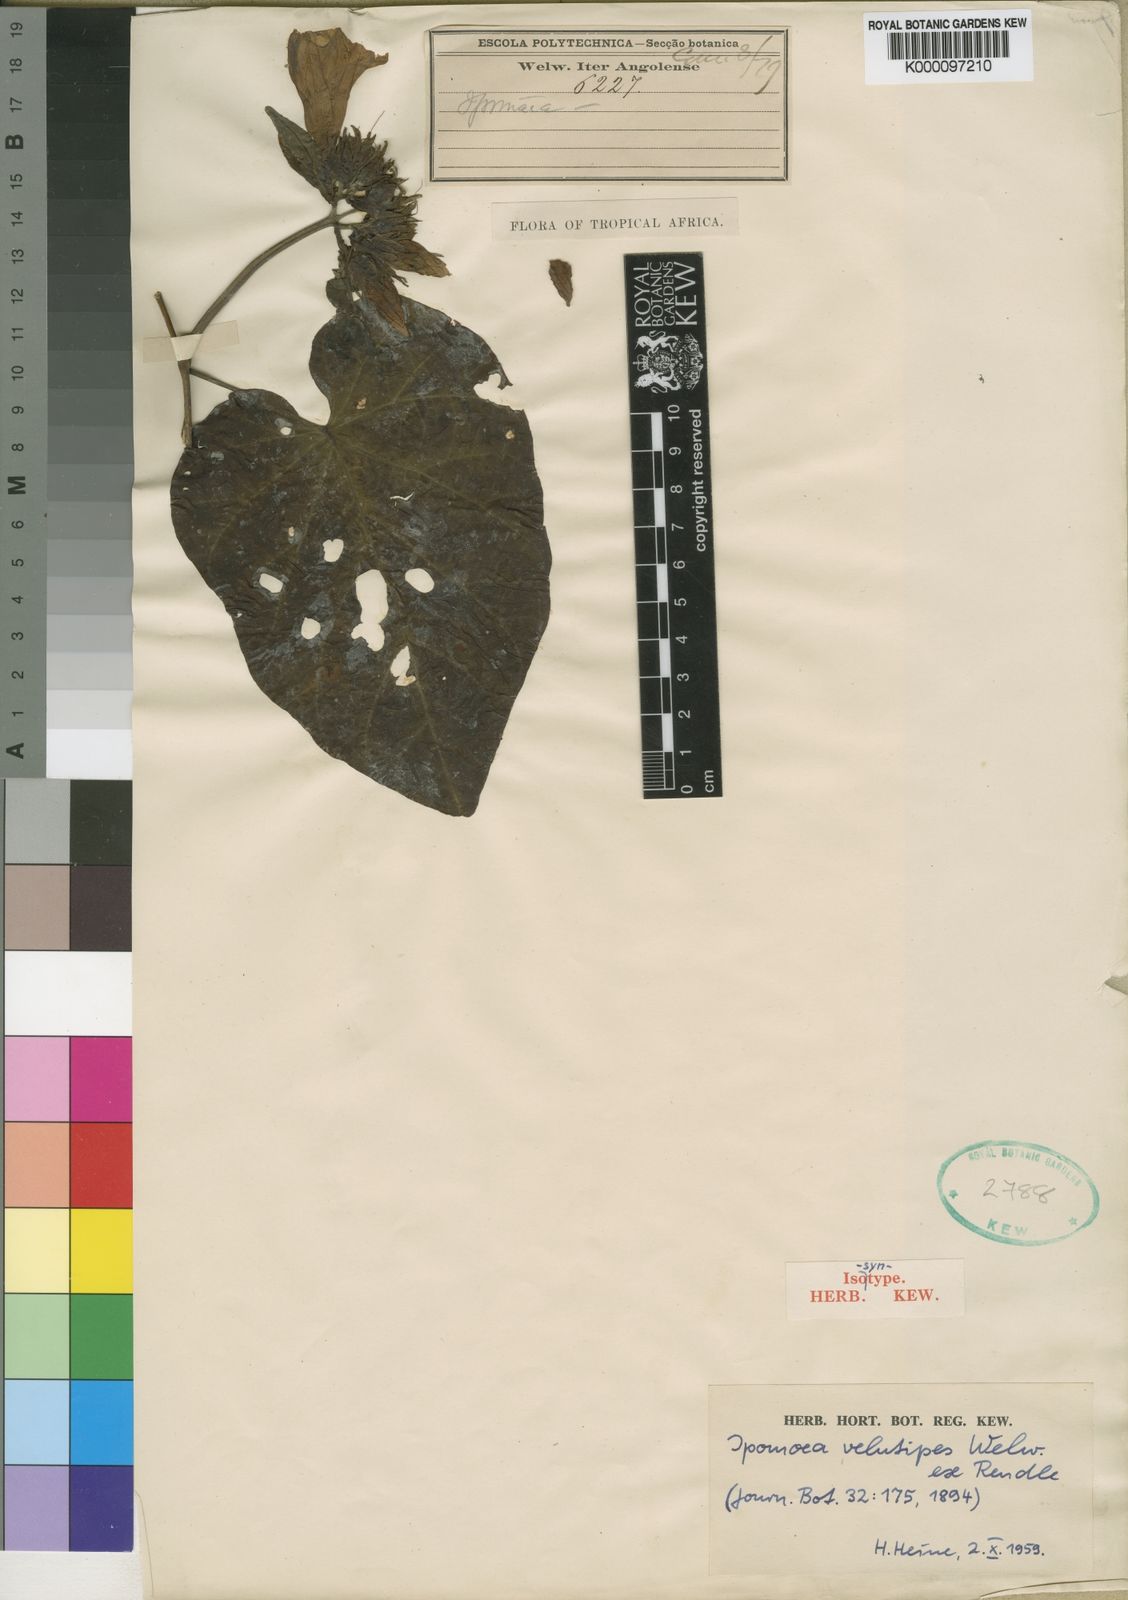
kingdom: Plantae
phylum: Tracheophyta
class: Magnoliopsida
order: Solanales
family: Convolvulaceae
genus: Ipomoea
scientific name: Ipomoea chrysochaetia
